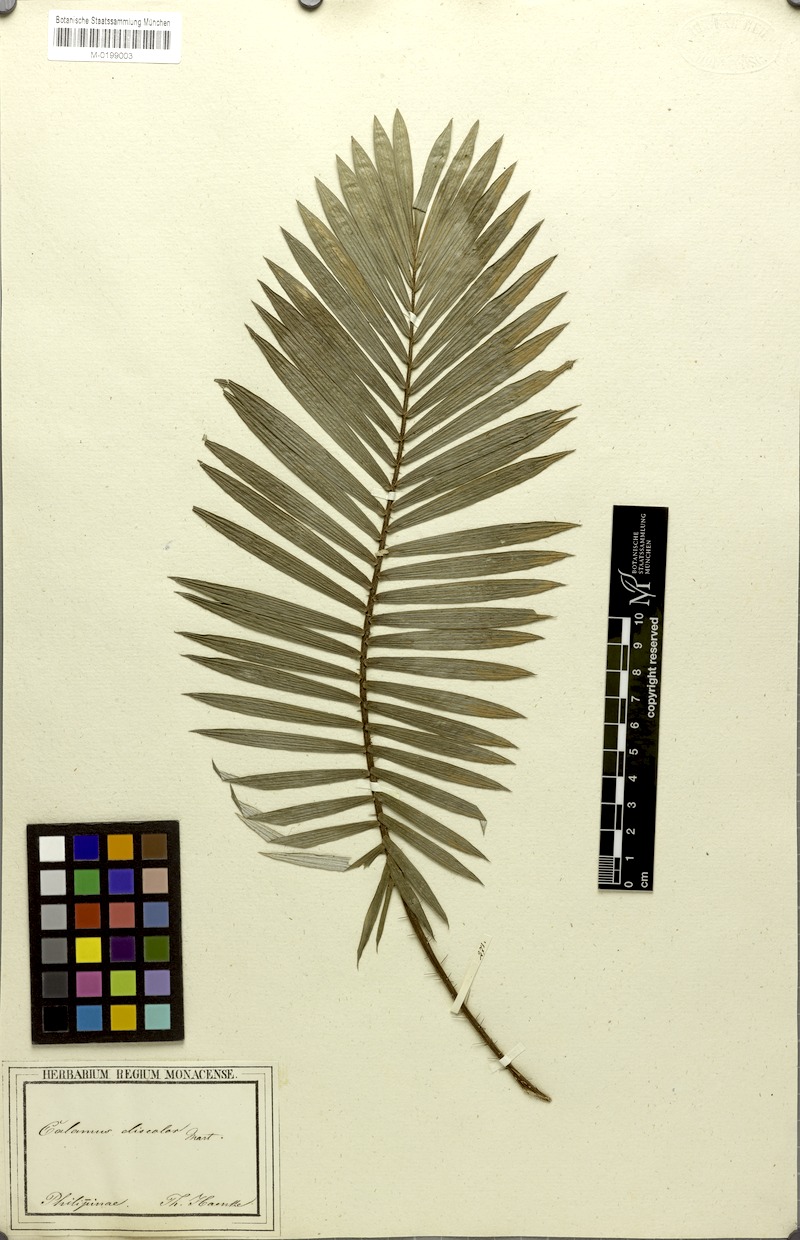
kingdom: Plantae
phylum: Tracheophyta
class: Liliopsida
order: Arecales
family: Arecaceae
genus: Calamus
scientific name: Calamus discolor
